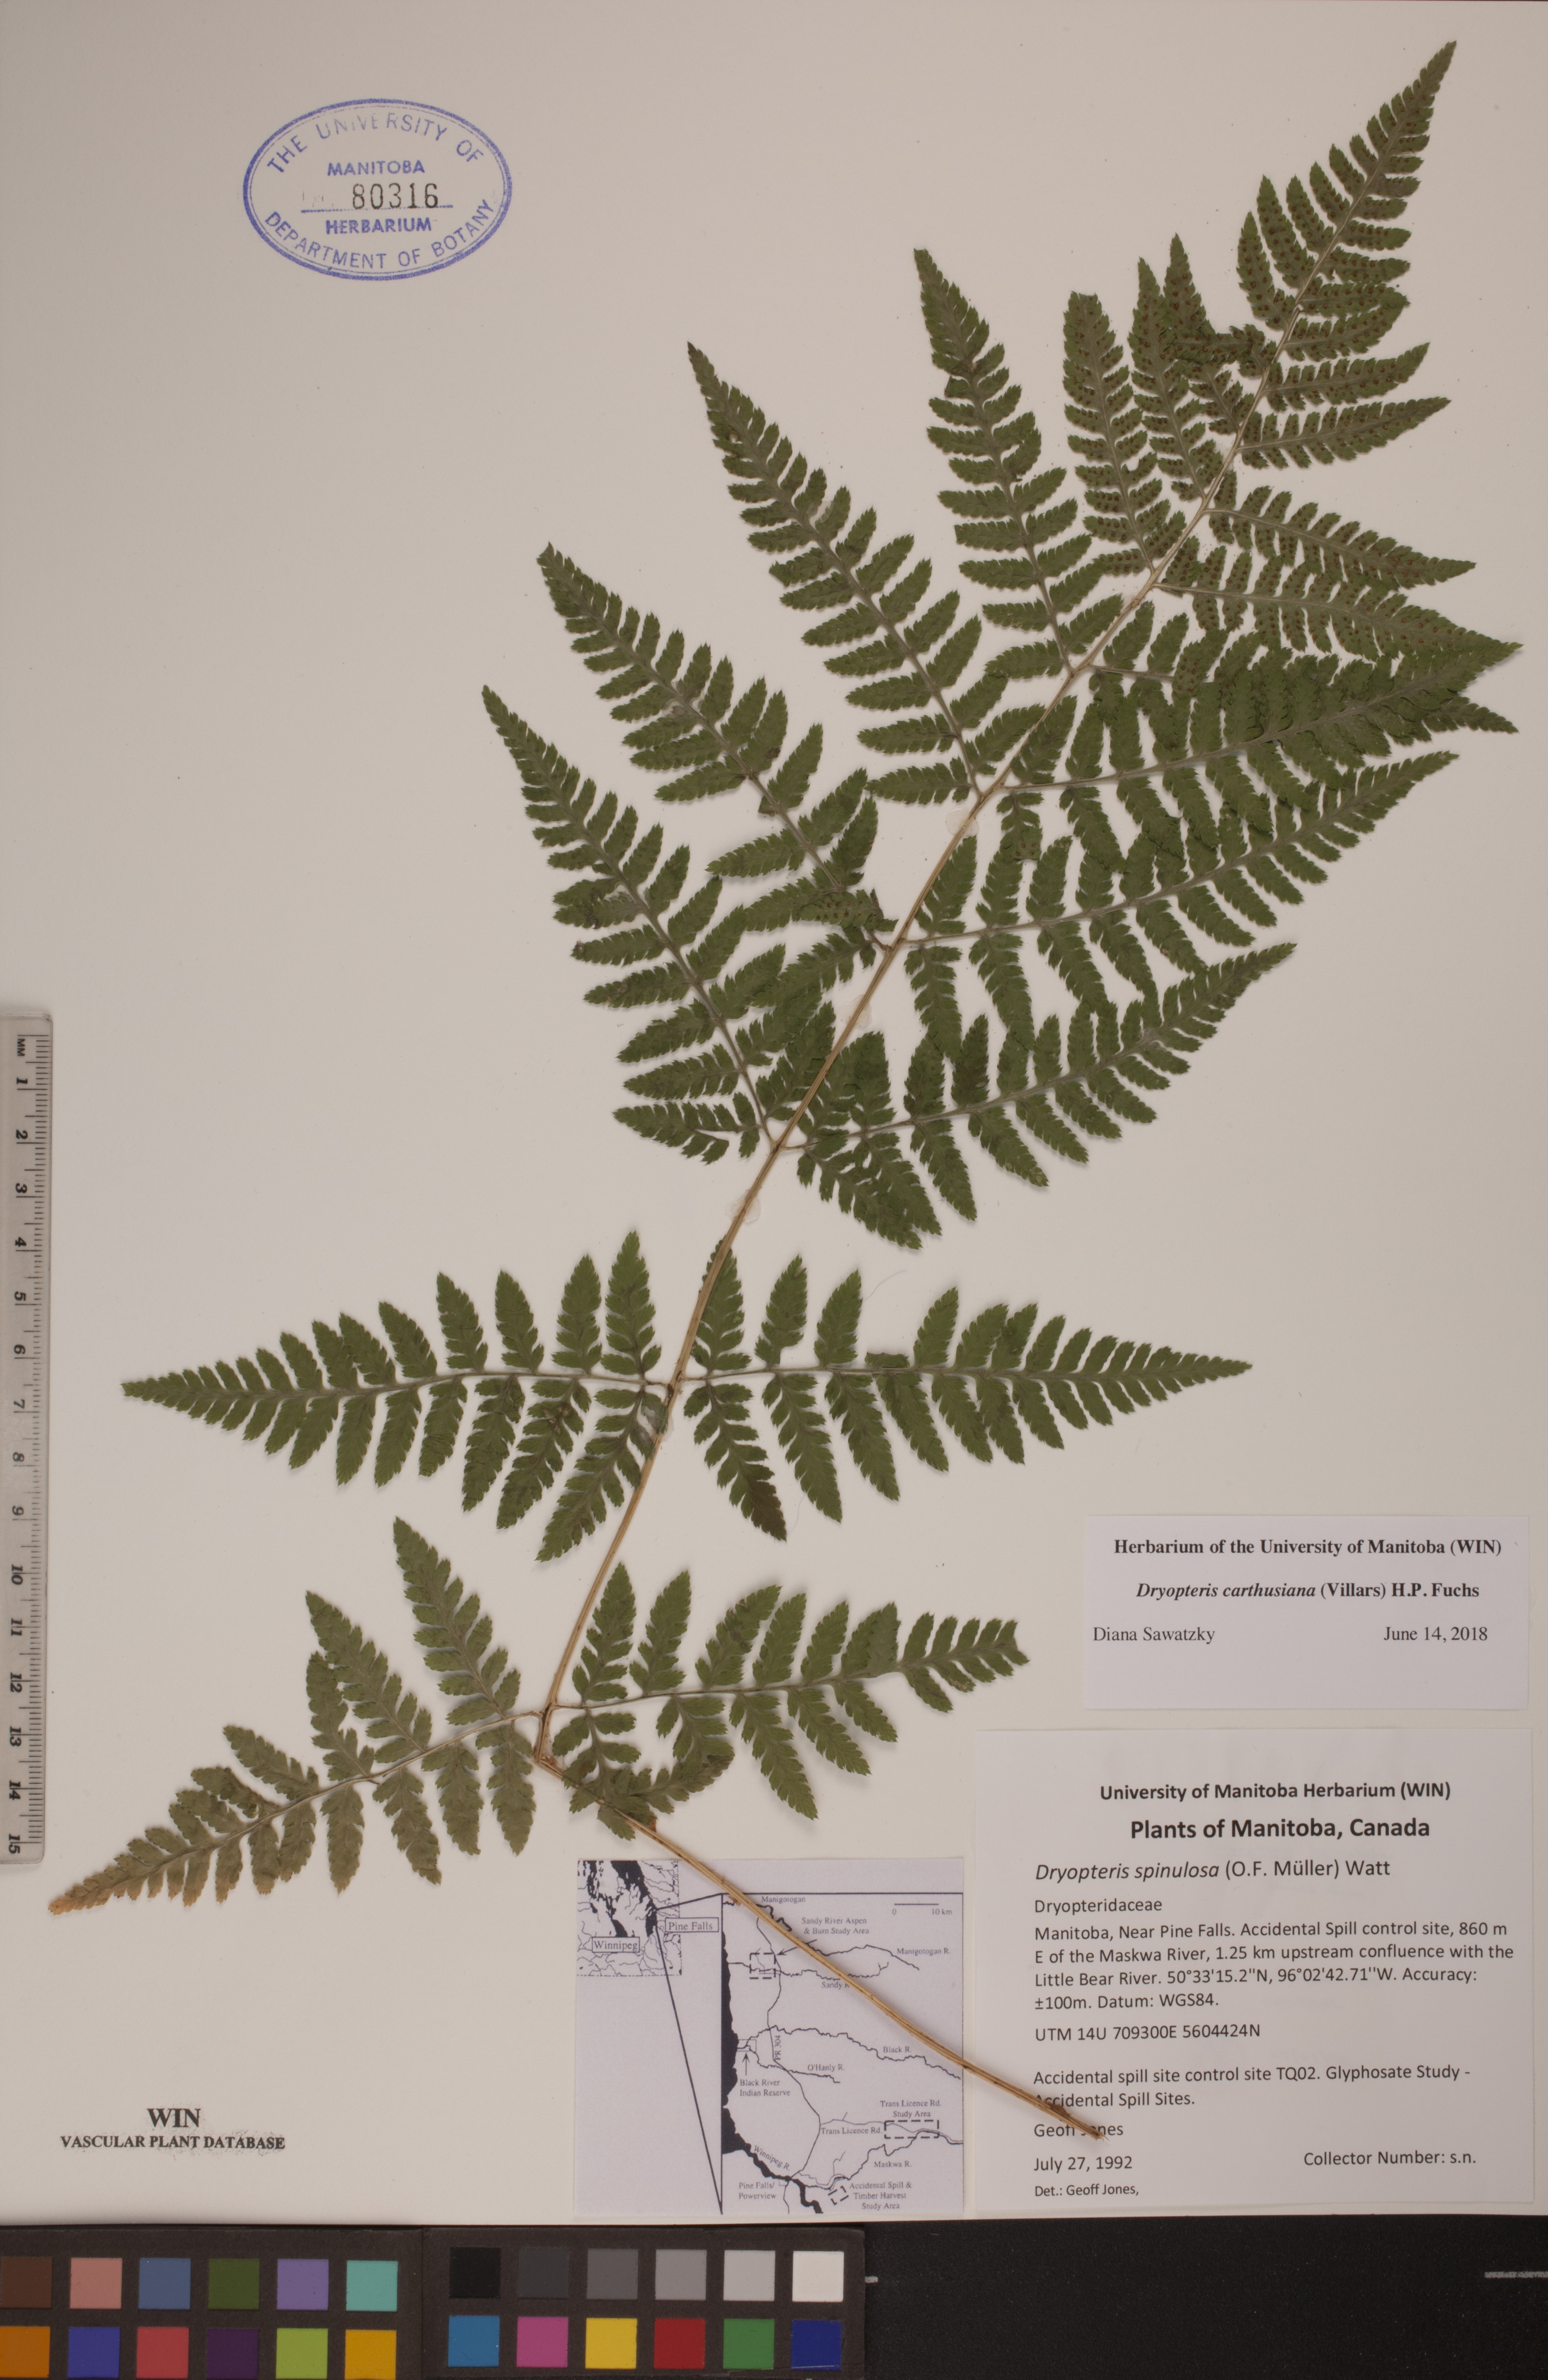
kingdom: Plantae
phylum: Tracheophyta
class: Polypodiopsida
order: Polypodiales
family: Dryopteridaceae
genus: Dryopteris
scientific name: Dryopteris carthusiana
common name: Narrow buckler-fern
